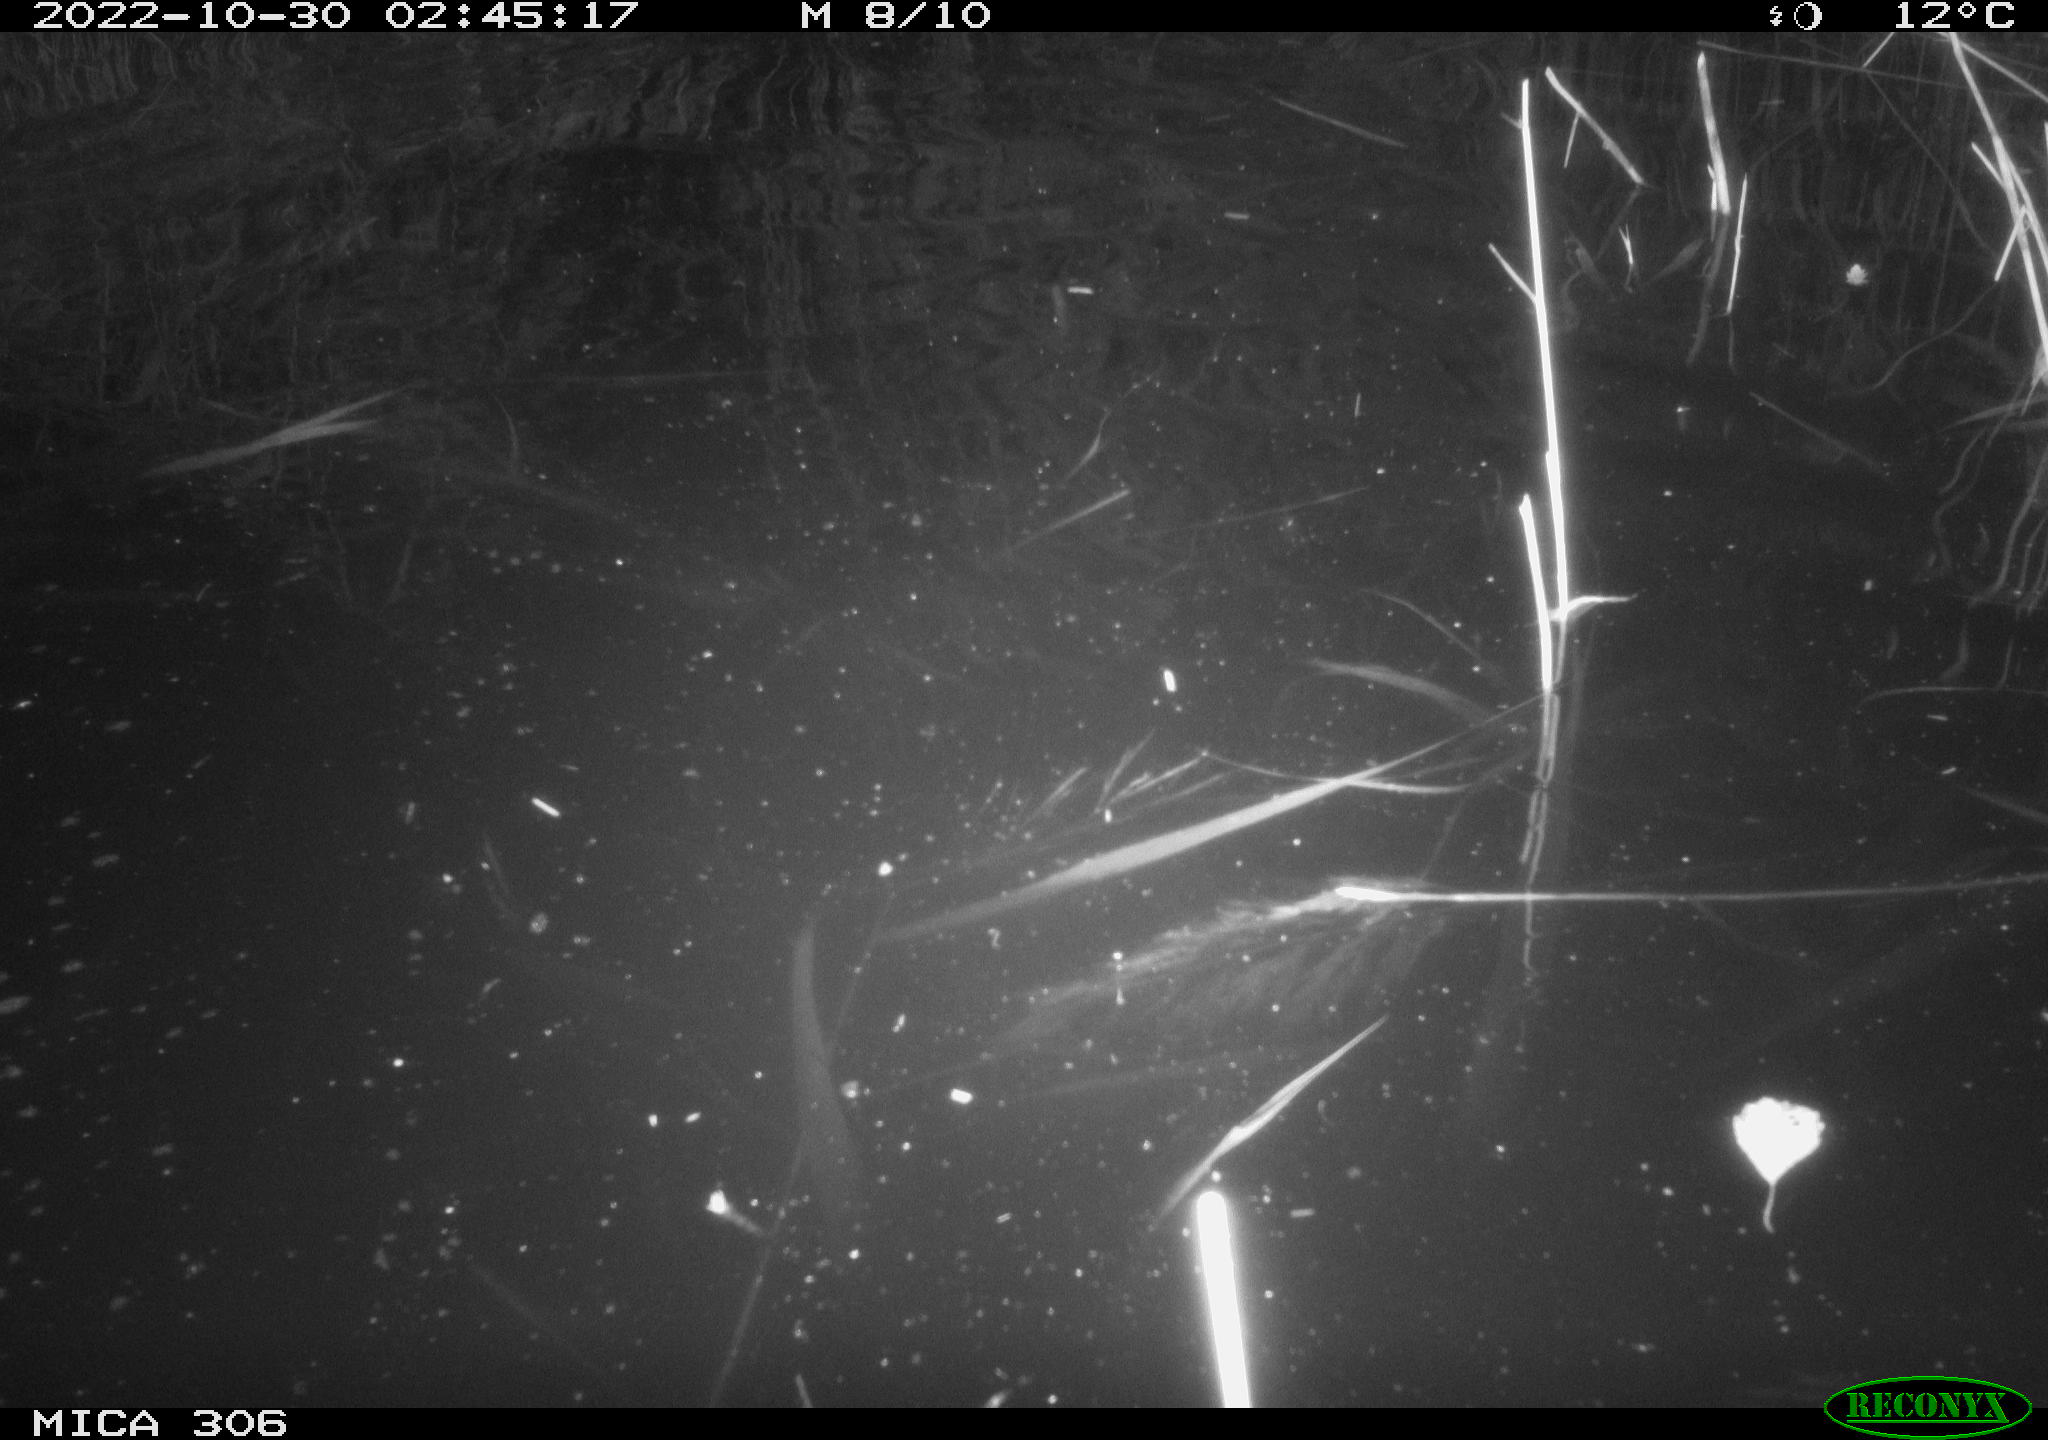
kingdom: Animalia
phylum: Chordata
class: Mammalia
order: Rodentia
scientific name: Rodentia
